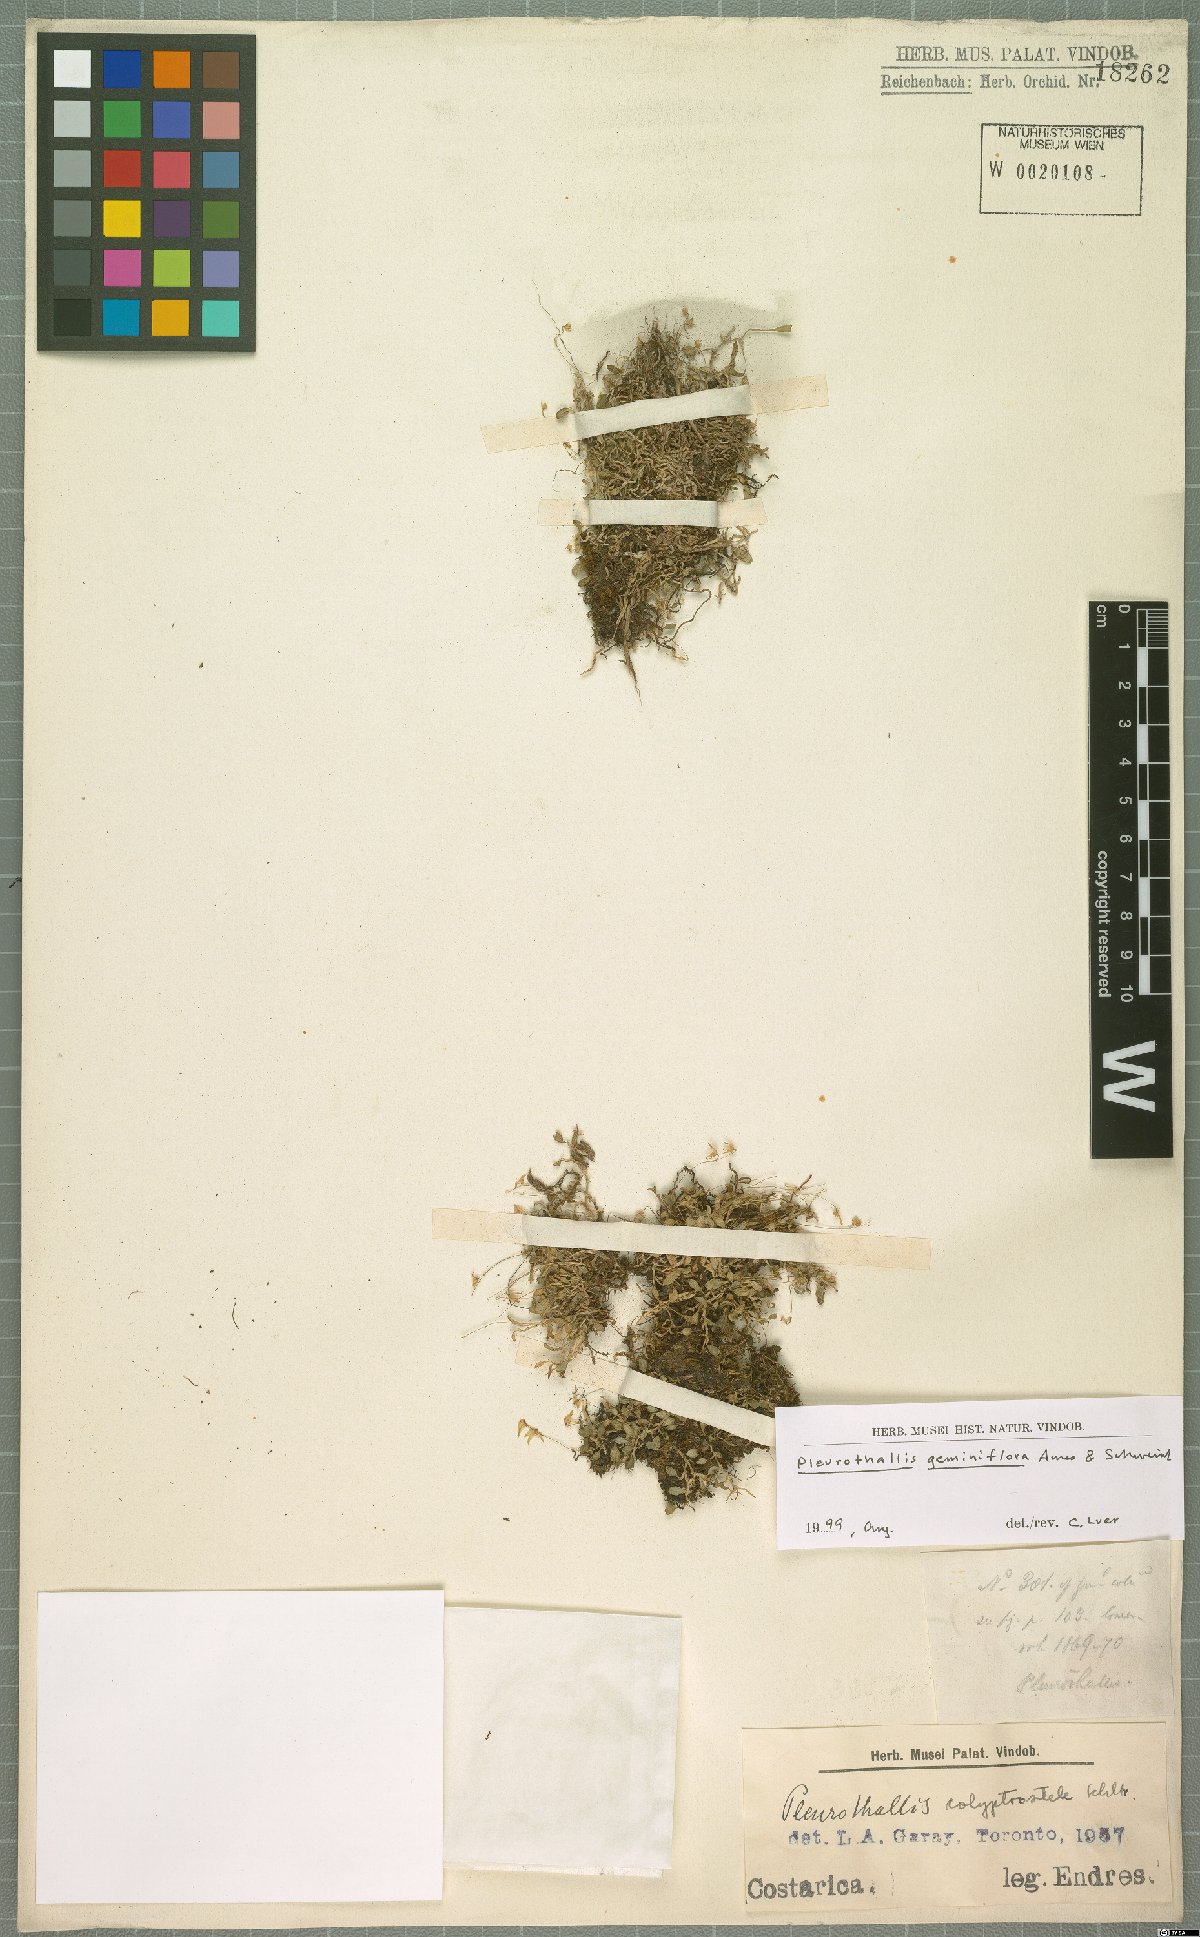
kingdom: Plantae
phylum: Tracheophyta
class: Liliopsida
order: Asparagales
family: Orchidaceae
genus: Specklinia
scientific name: Specklinia calyptrostele
